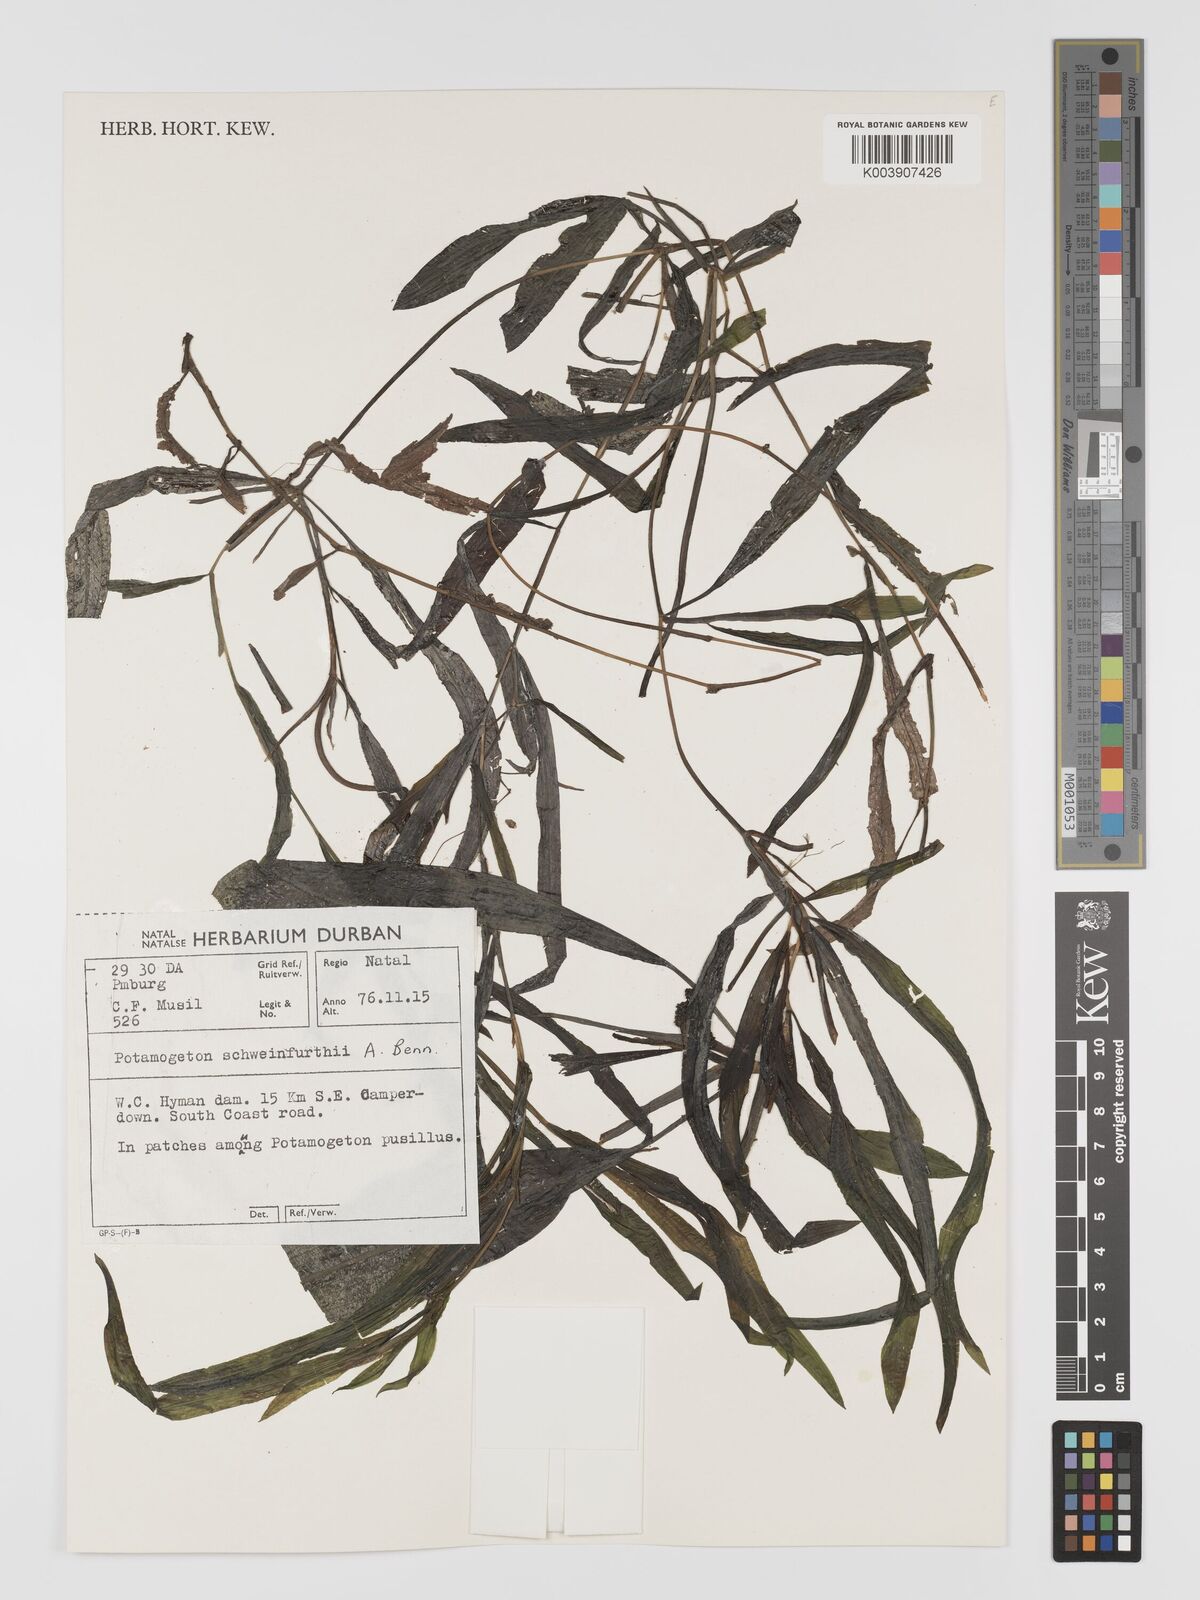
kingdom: Plantae
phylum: Tracheophyta
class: Liliopsida
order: Alismatales
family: Potamogetonaceae
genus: Potamogeton
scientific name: Potamogeton schweinfurthii
